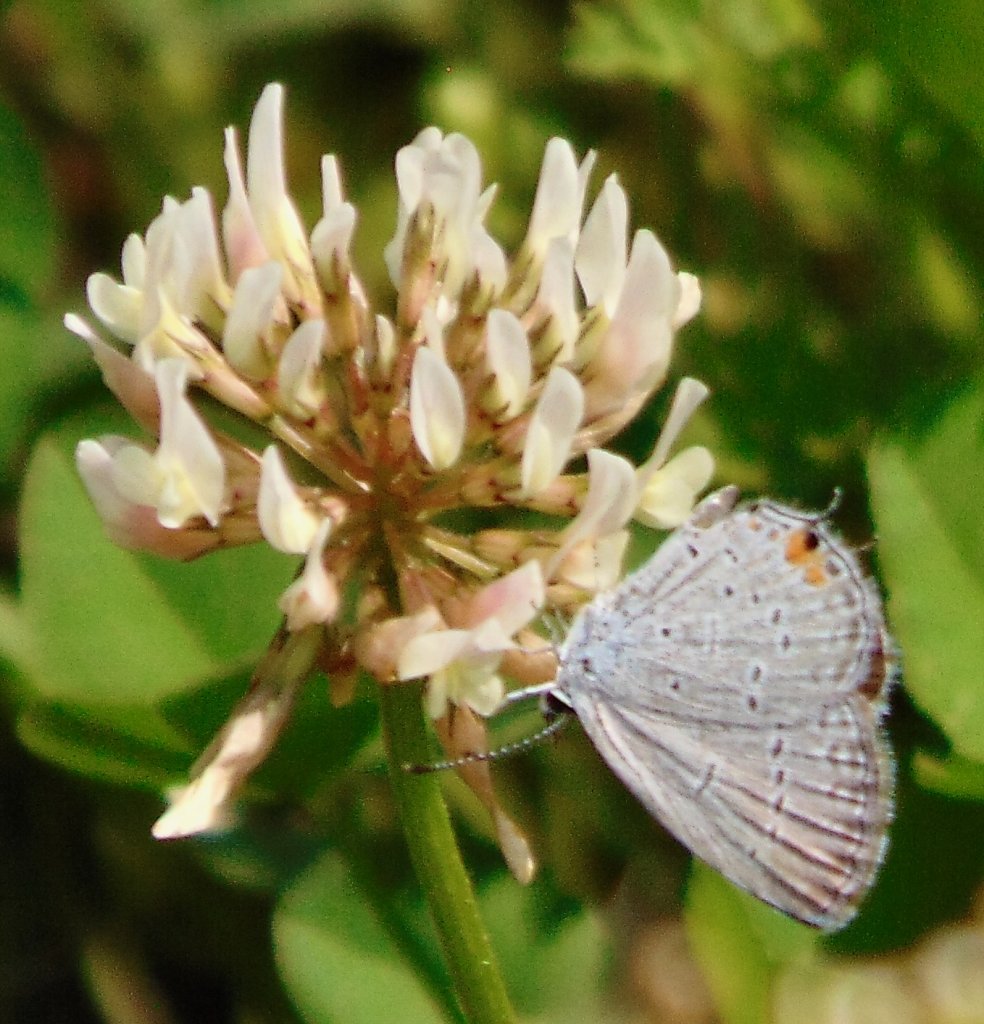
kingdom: Animalia
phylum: Arthropoda
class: Insecta
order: Lepidoptera
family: Lycaenidae
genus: Elkalyce
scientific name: Elkalyce comyntas
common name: Eastern Tailed-Blue
